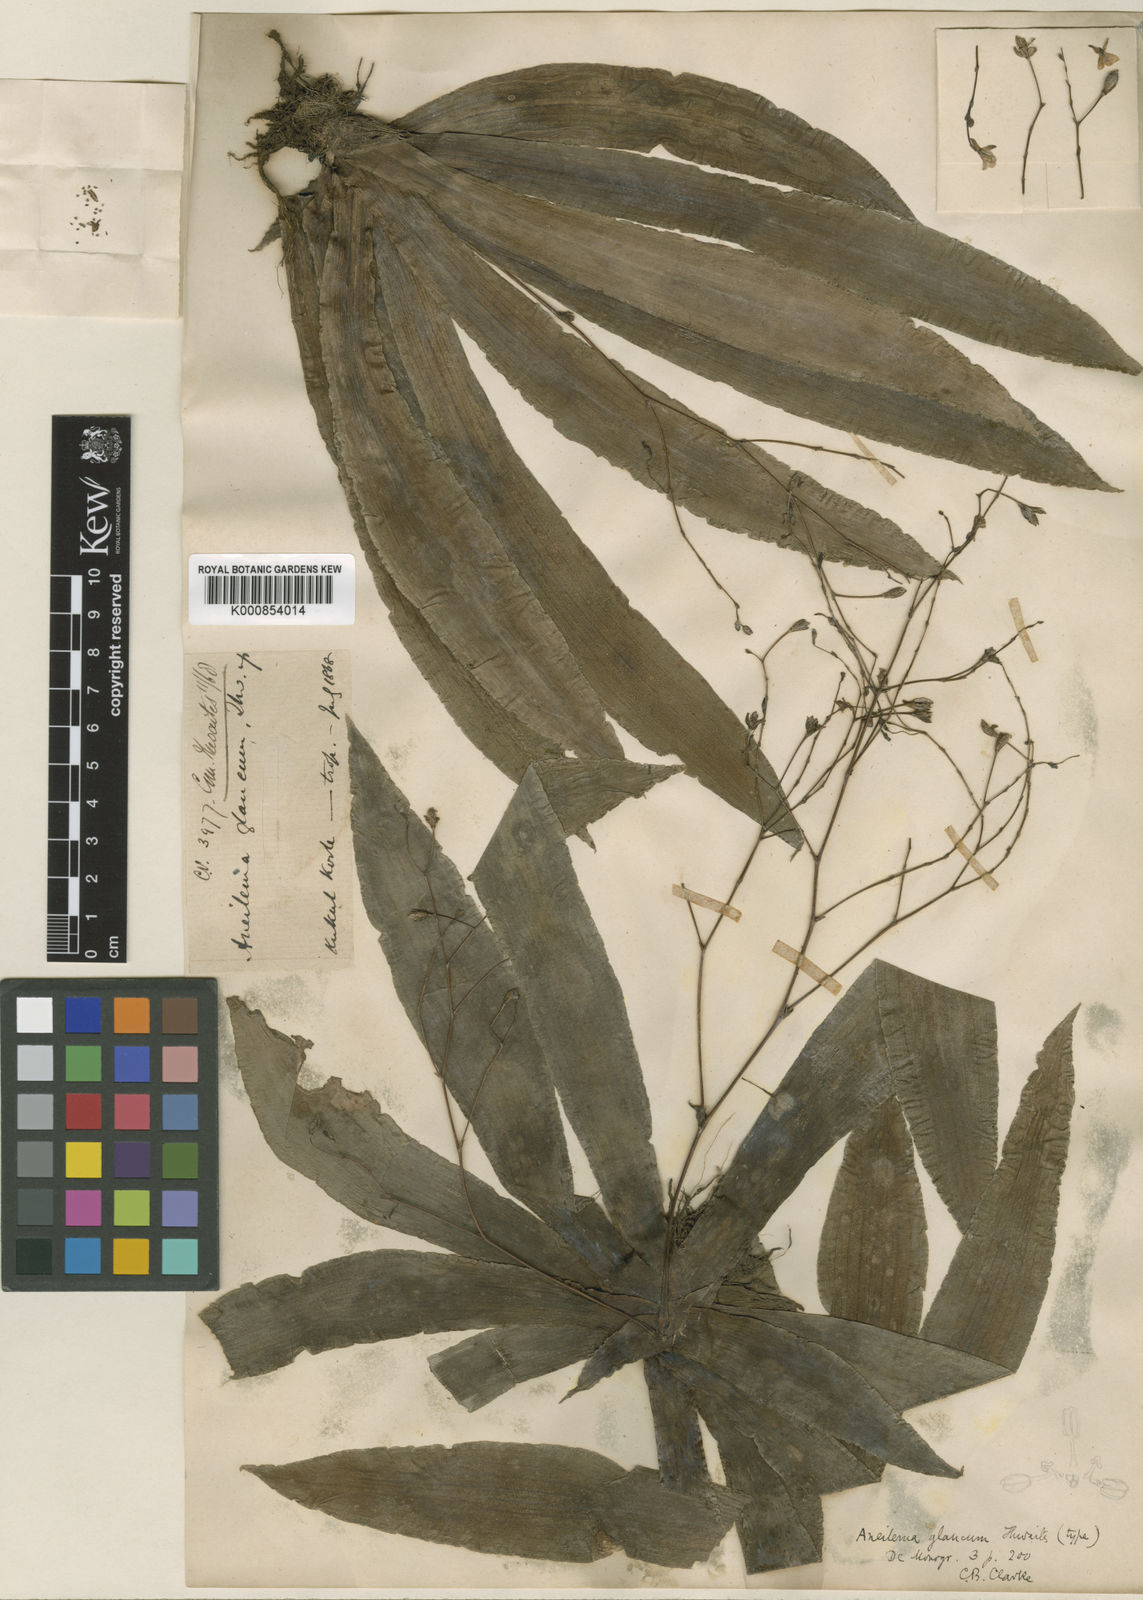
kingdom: Plantae
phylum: Tracheophyta
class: Liliopsida
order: Commelinales
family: Commelinaceae
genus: Murdannia
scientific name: Murdannia
